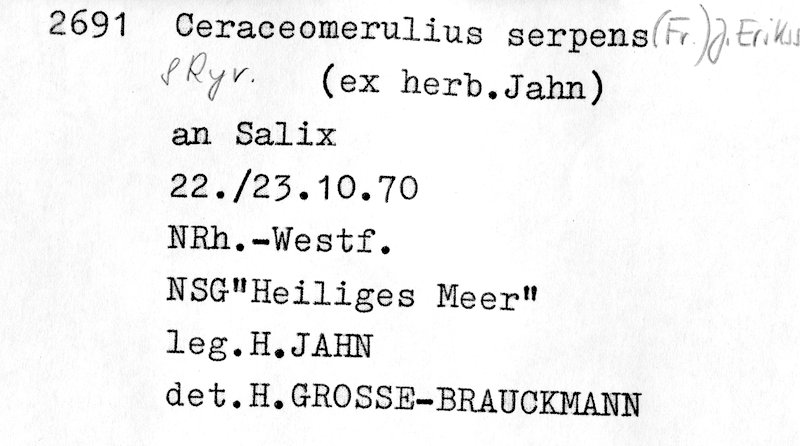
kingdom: Fungi
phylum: Basidiomycota
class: Agaricomycetes
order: Polyporales
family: Irpicaceae
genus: Crystallicutis
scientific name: Crystallicutis serpens
